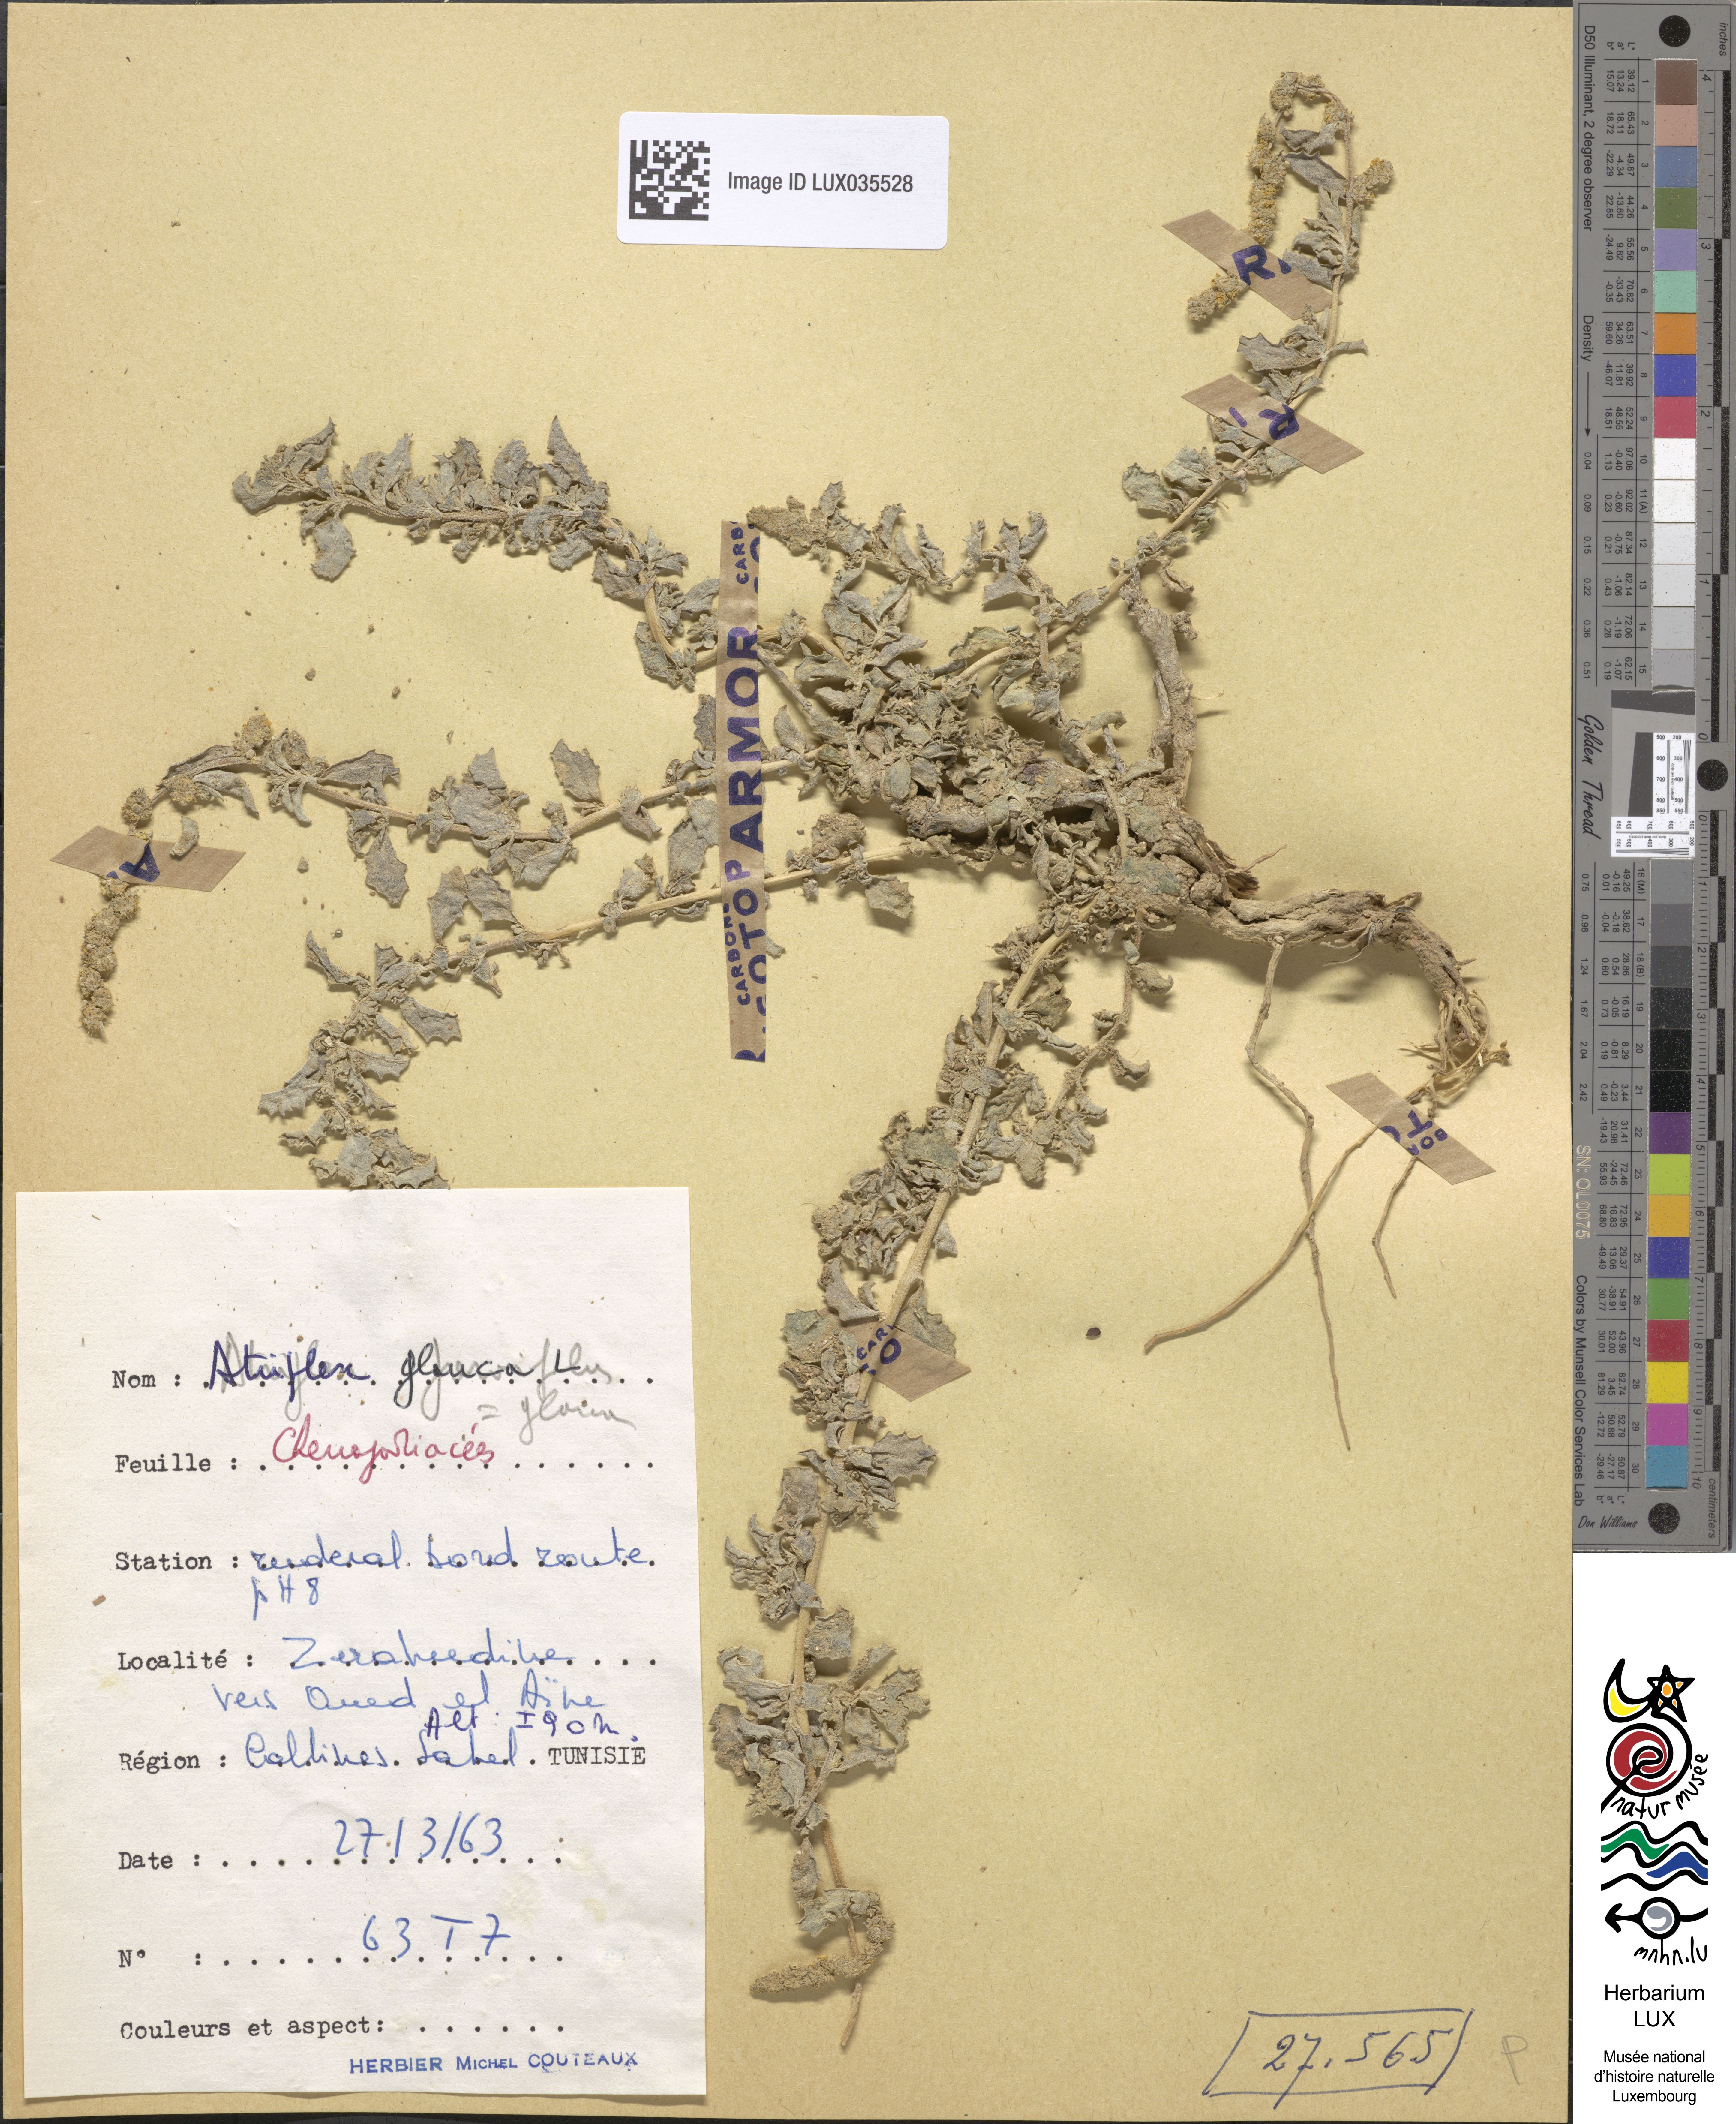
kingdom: Plantae
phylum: Tracheophyta
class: Magnoliopsida
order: Caryophyllales
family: Amaranthaceae
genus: Atriplex
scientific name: Atriplex glauca
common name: Waxy saltbush
